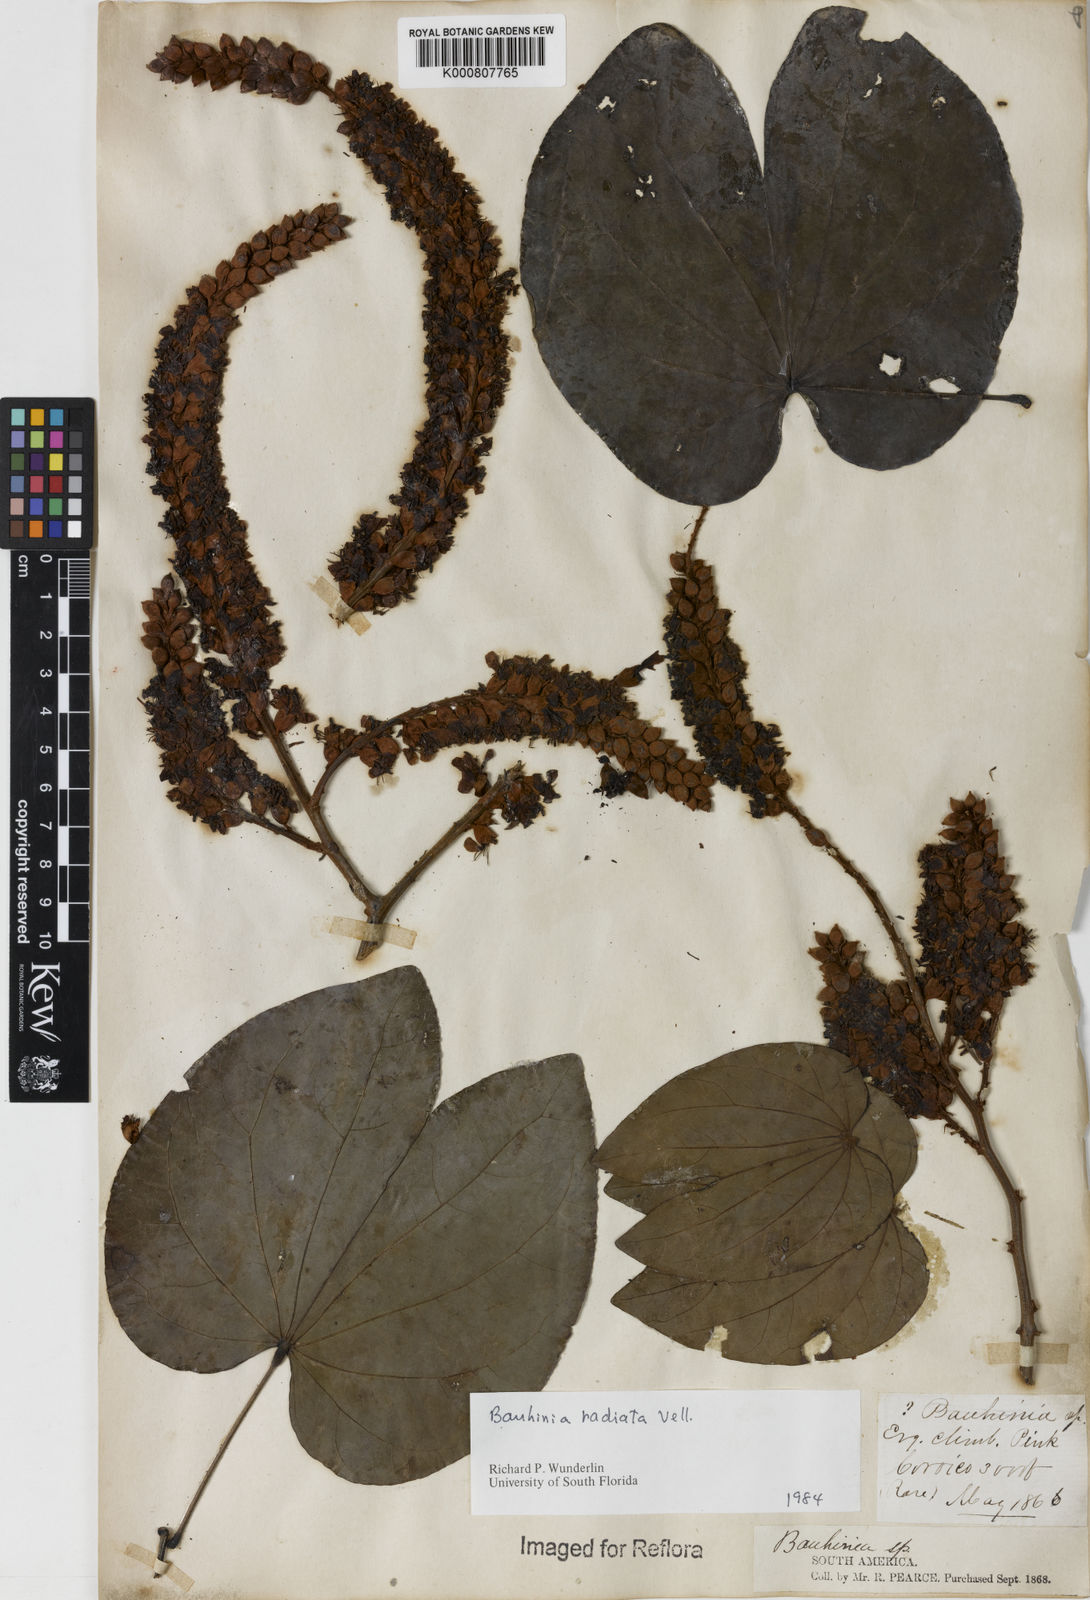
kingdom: Plantae
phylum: Tracheophyta
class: Magnoliopsida
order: Fabales
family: Fabaceae
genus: Schnella
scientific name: Schnella macrostachya
